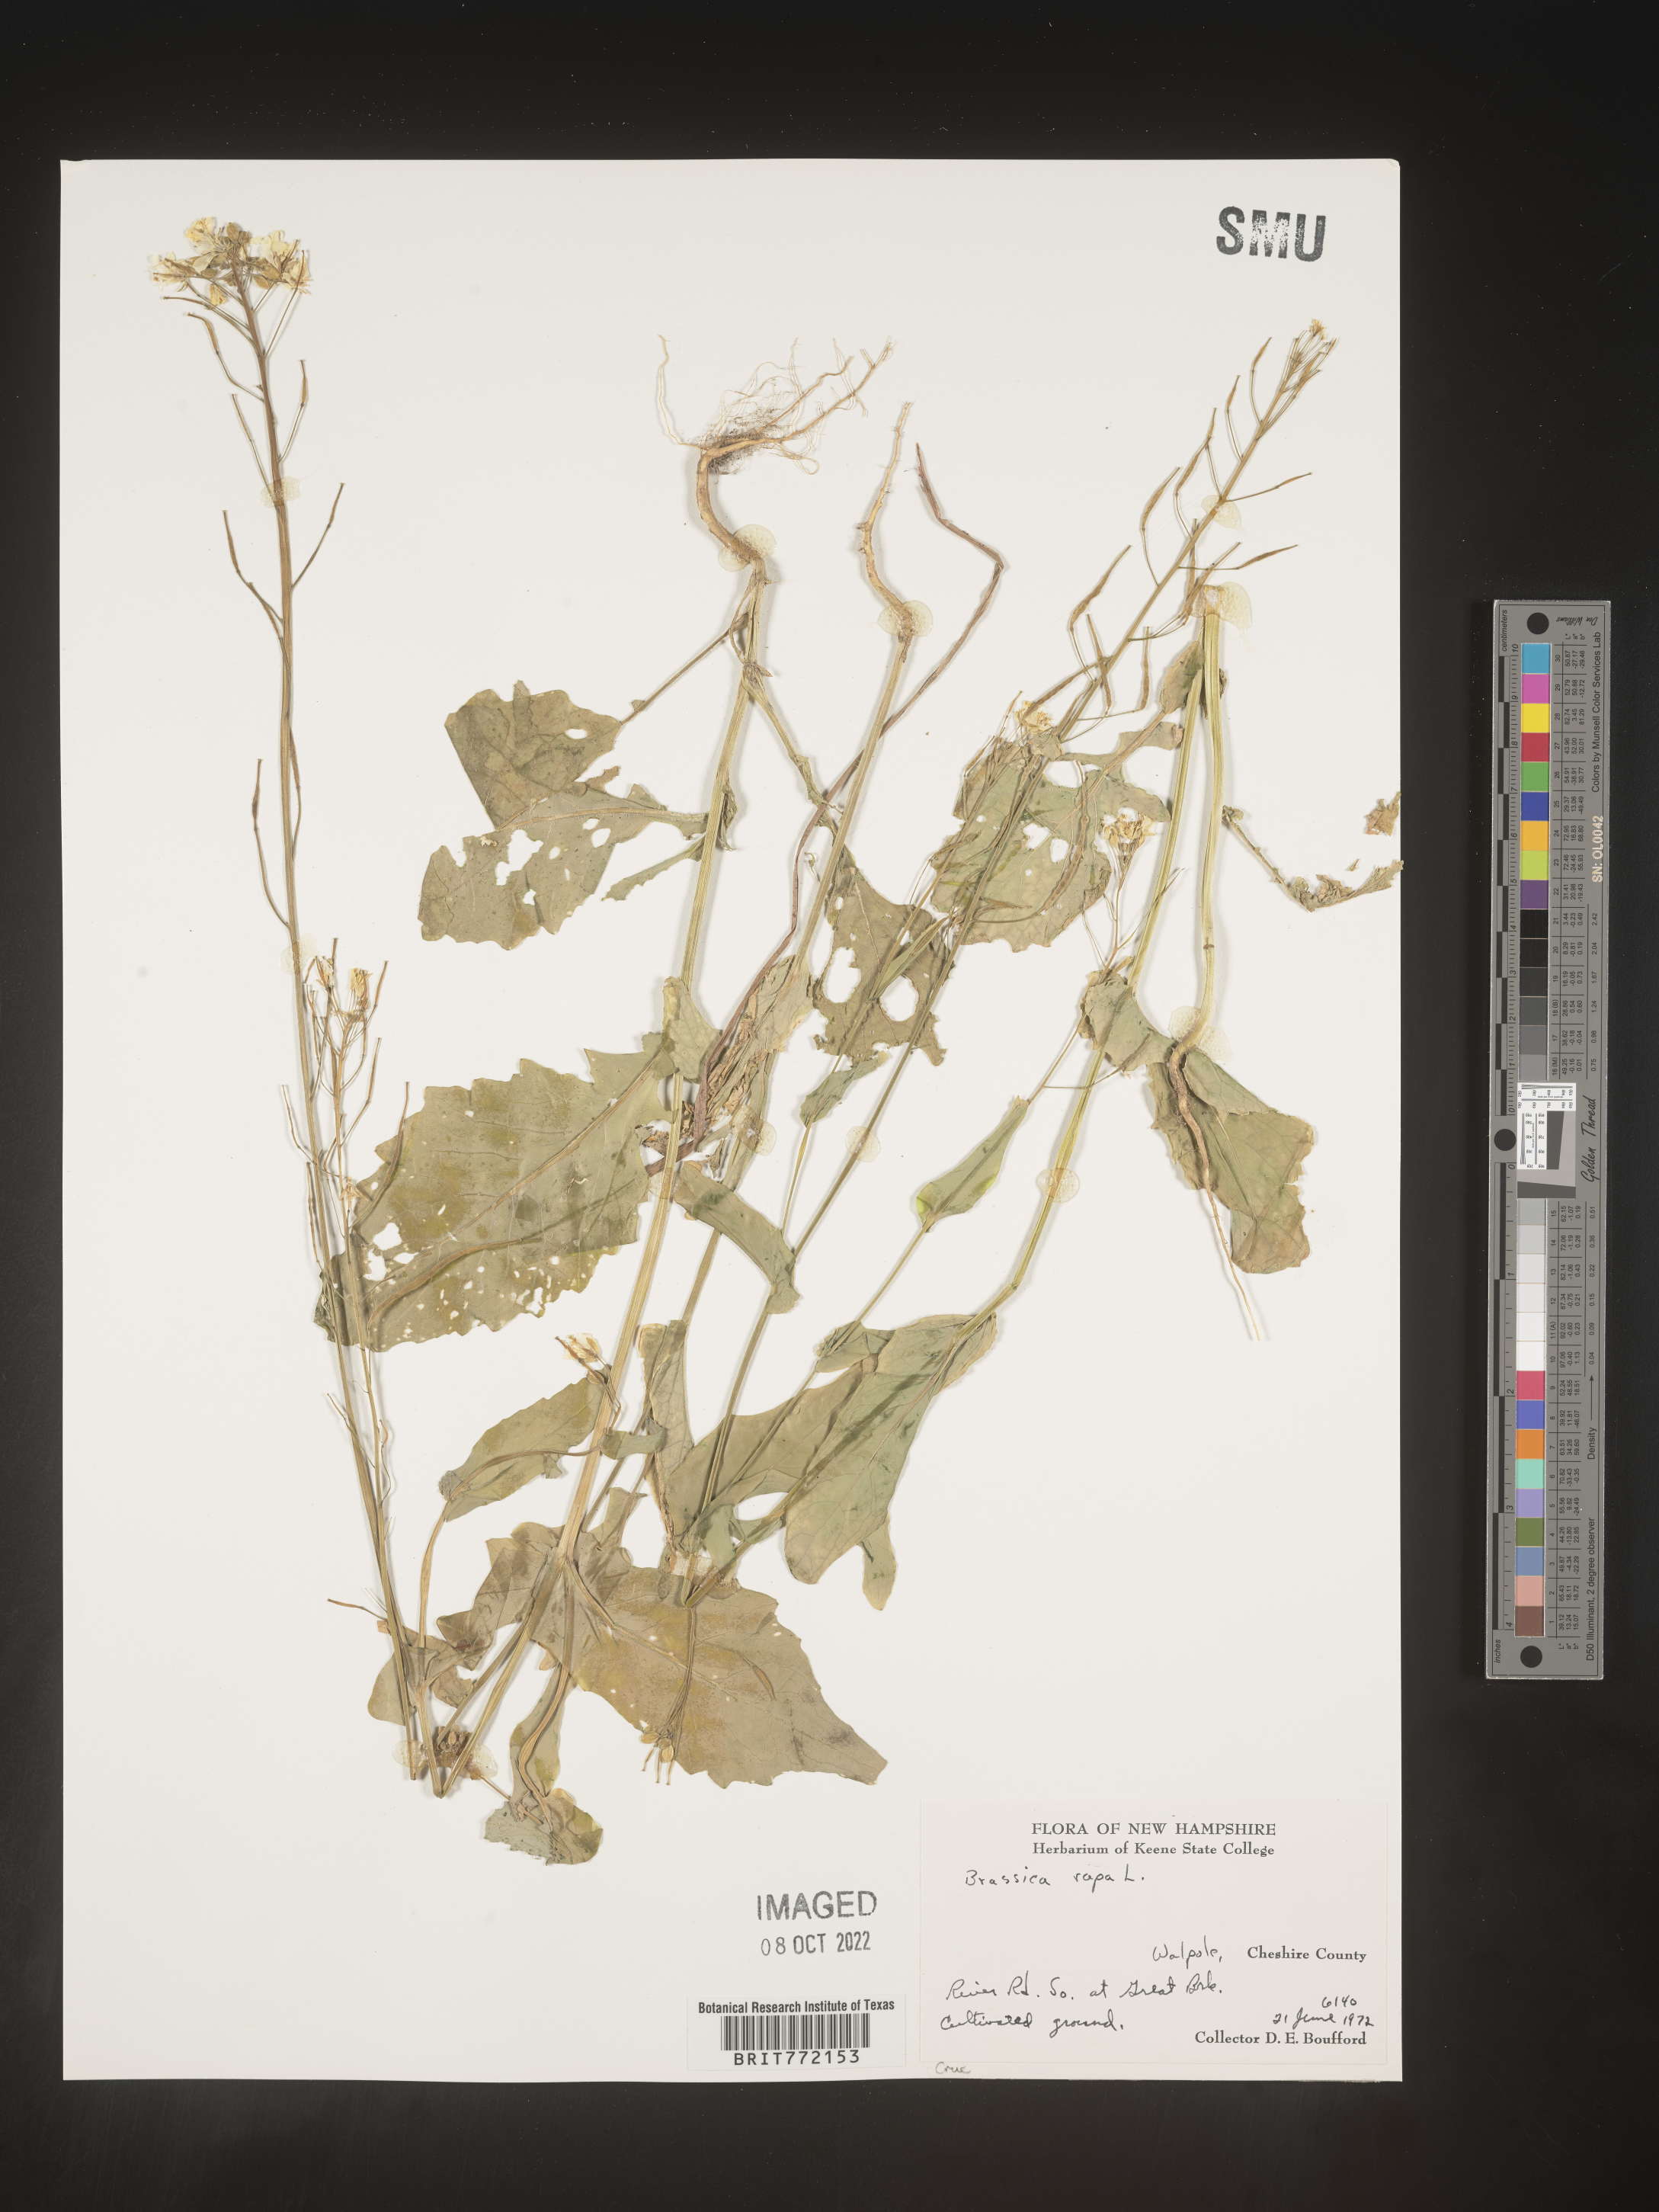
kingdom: Plantae
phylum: Tracheophyta
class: Magnoliopsida
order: Brassicales
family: Brassicaceae
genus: Brassica
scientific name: Brassica rapa
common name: Field mustard
